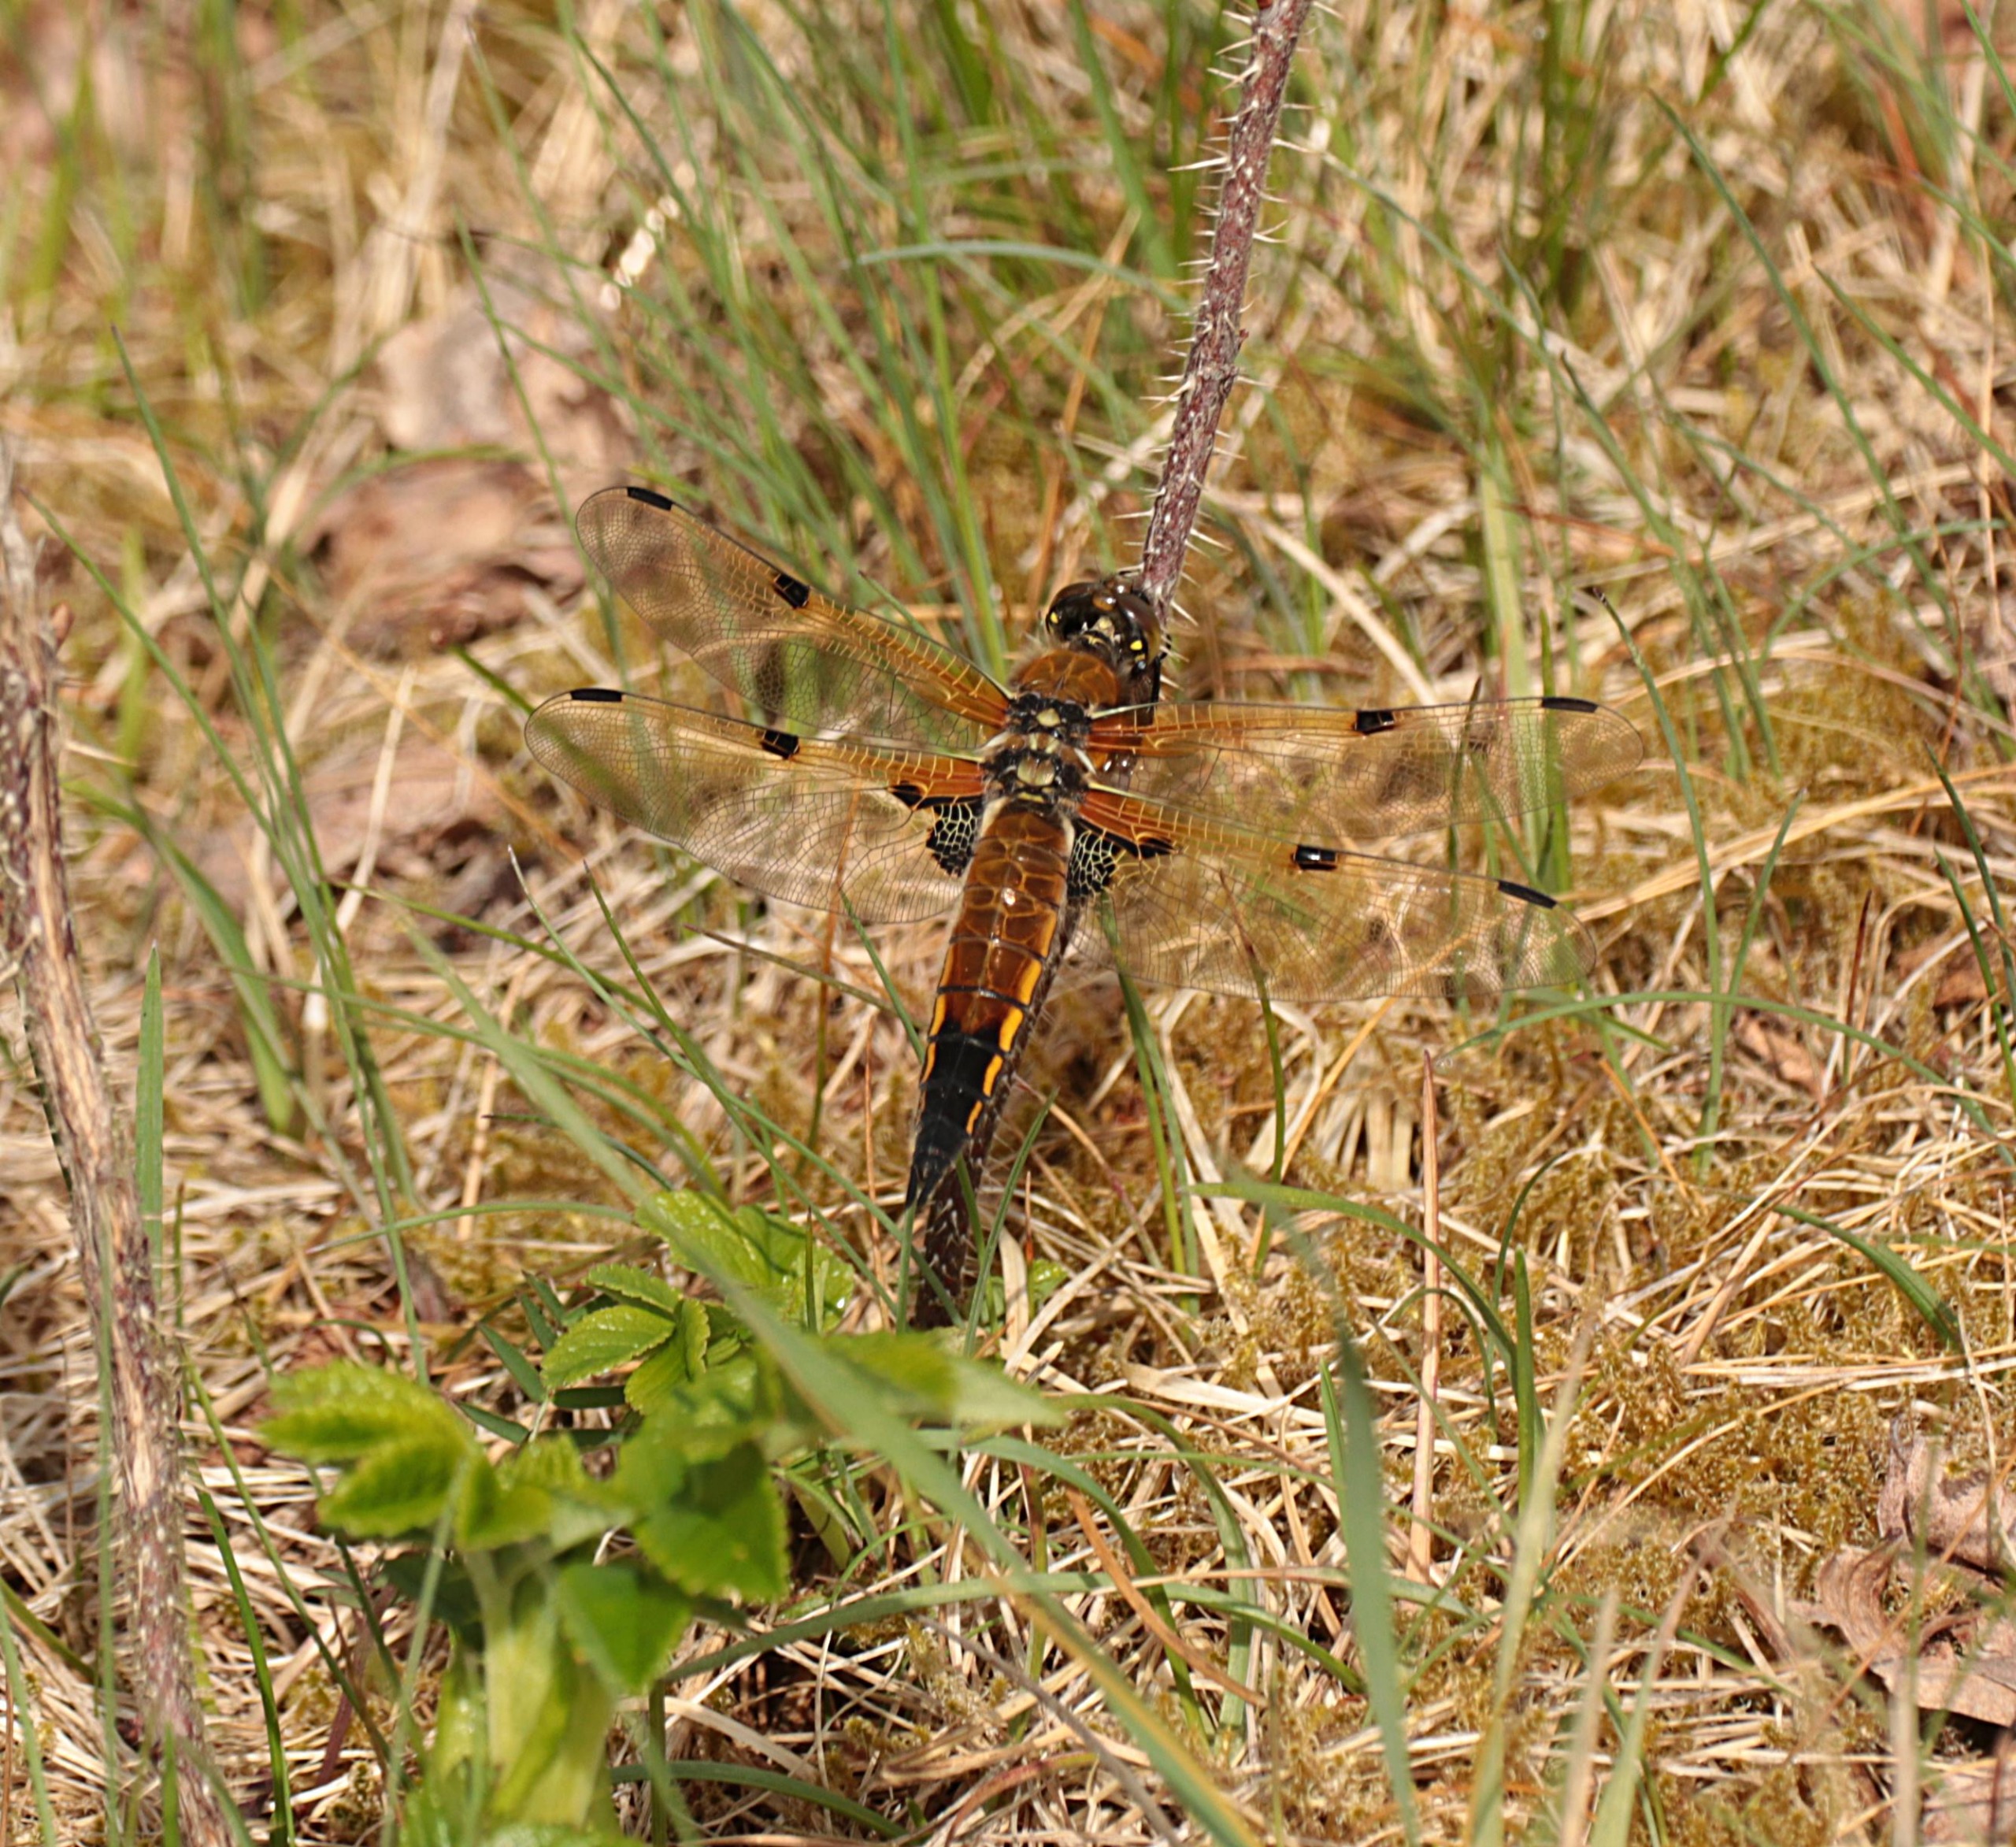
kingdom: Animalia
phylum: Arthropoda
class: Insecta
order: Odonata
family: Libellulidae
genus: Libellula
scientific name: Libellula quadrimaculata
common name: Fireplettet libel
